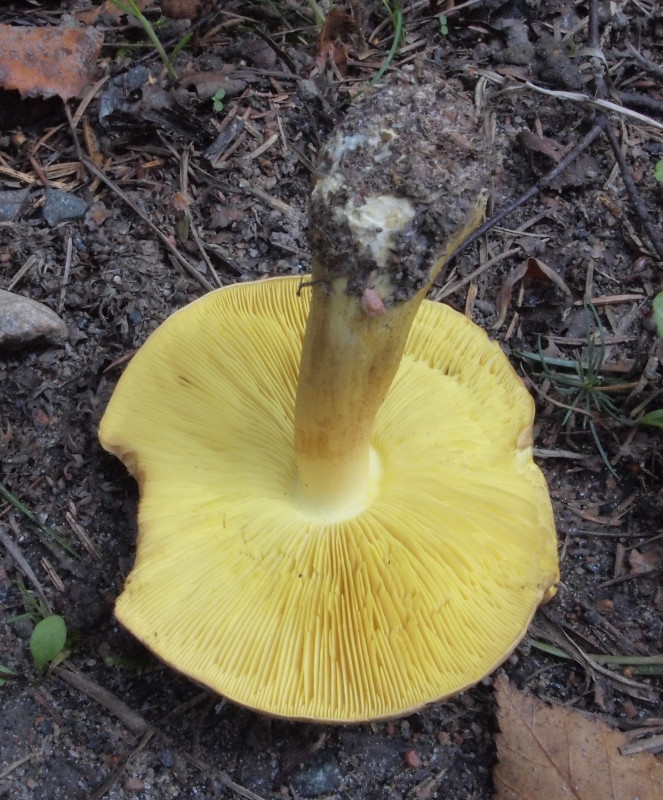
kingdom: Fungi
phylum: Basidiomycota
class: Agaricomycetes
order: Agaricales
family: Tricholomataceae
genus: Tricholoma
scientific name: Tricholoma frondosae
